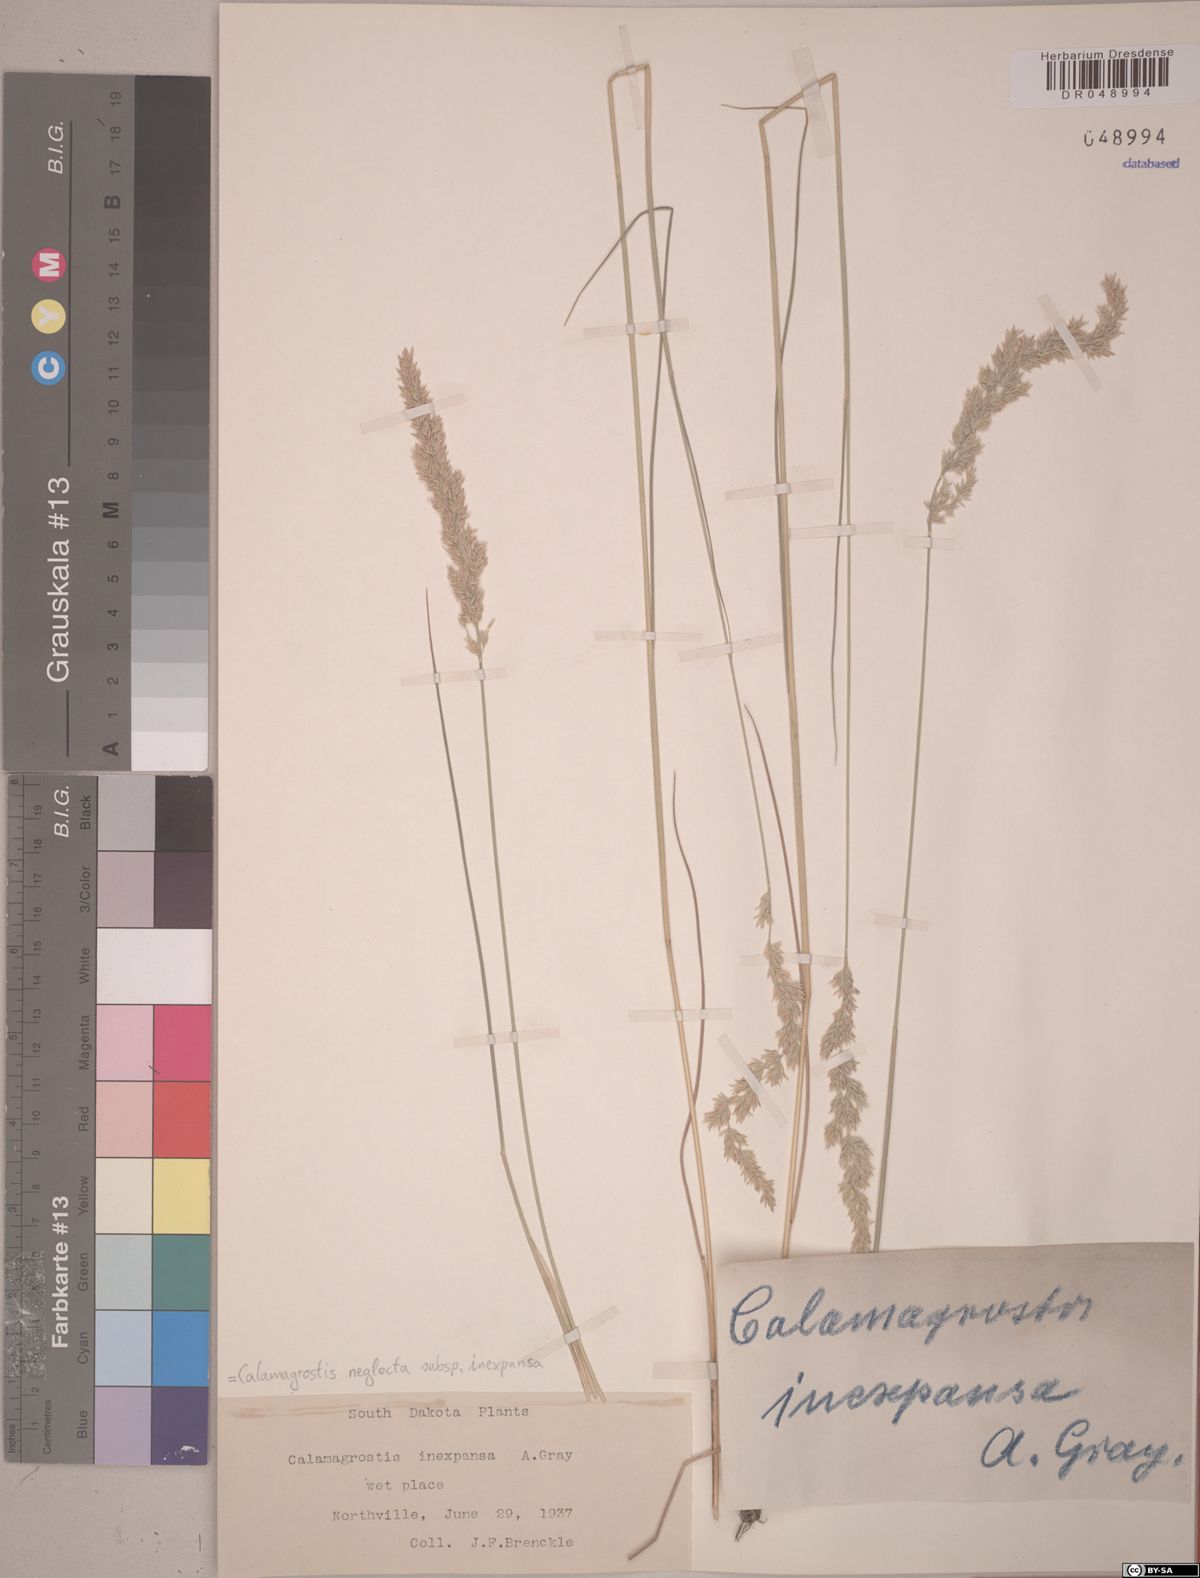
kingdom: Plantae
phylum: Tracheophyta
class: Liliopsida
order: Poales
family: Poaceae
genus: Calamagrostis
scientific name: Calamagrostis inexpansa
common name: Northern reedgrass
